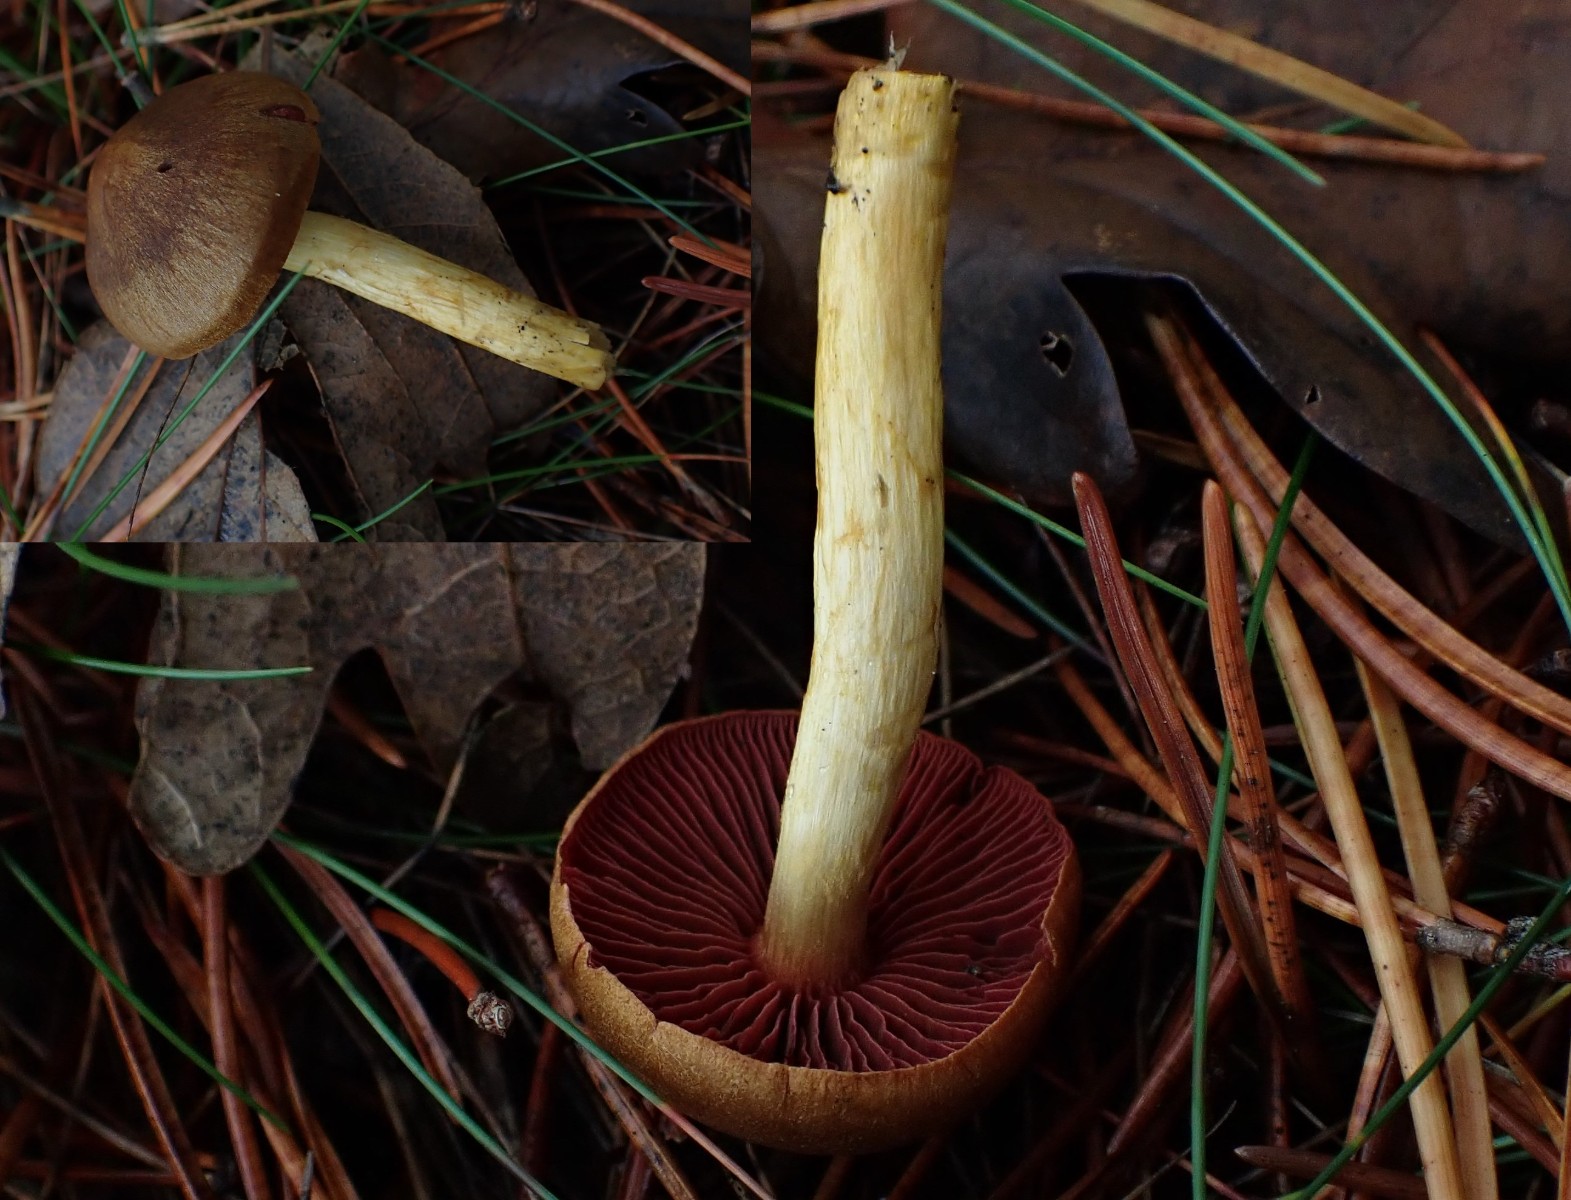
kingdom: Fungi
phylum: Basidiomycota
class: Agaricomycetes
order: Agaricales
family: Cortinariaceae
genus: Cortinarius
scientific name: Cortinarius
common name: cinnoberbladet slørhat
